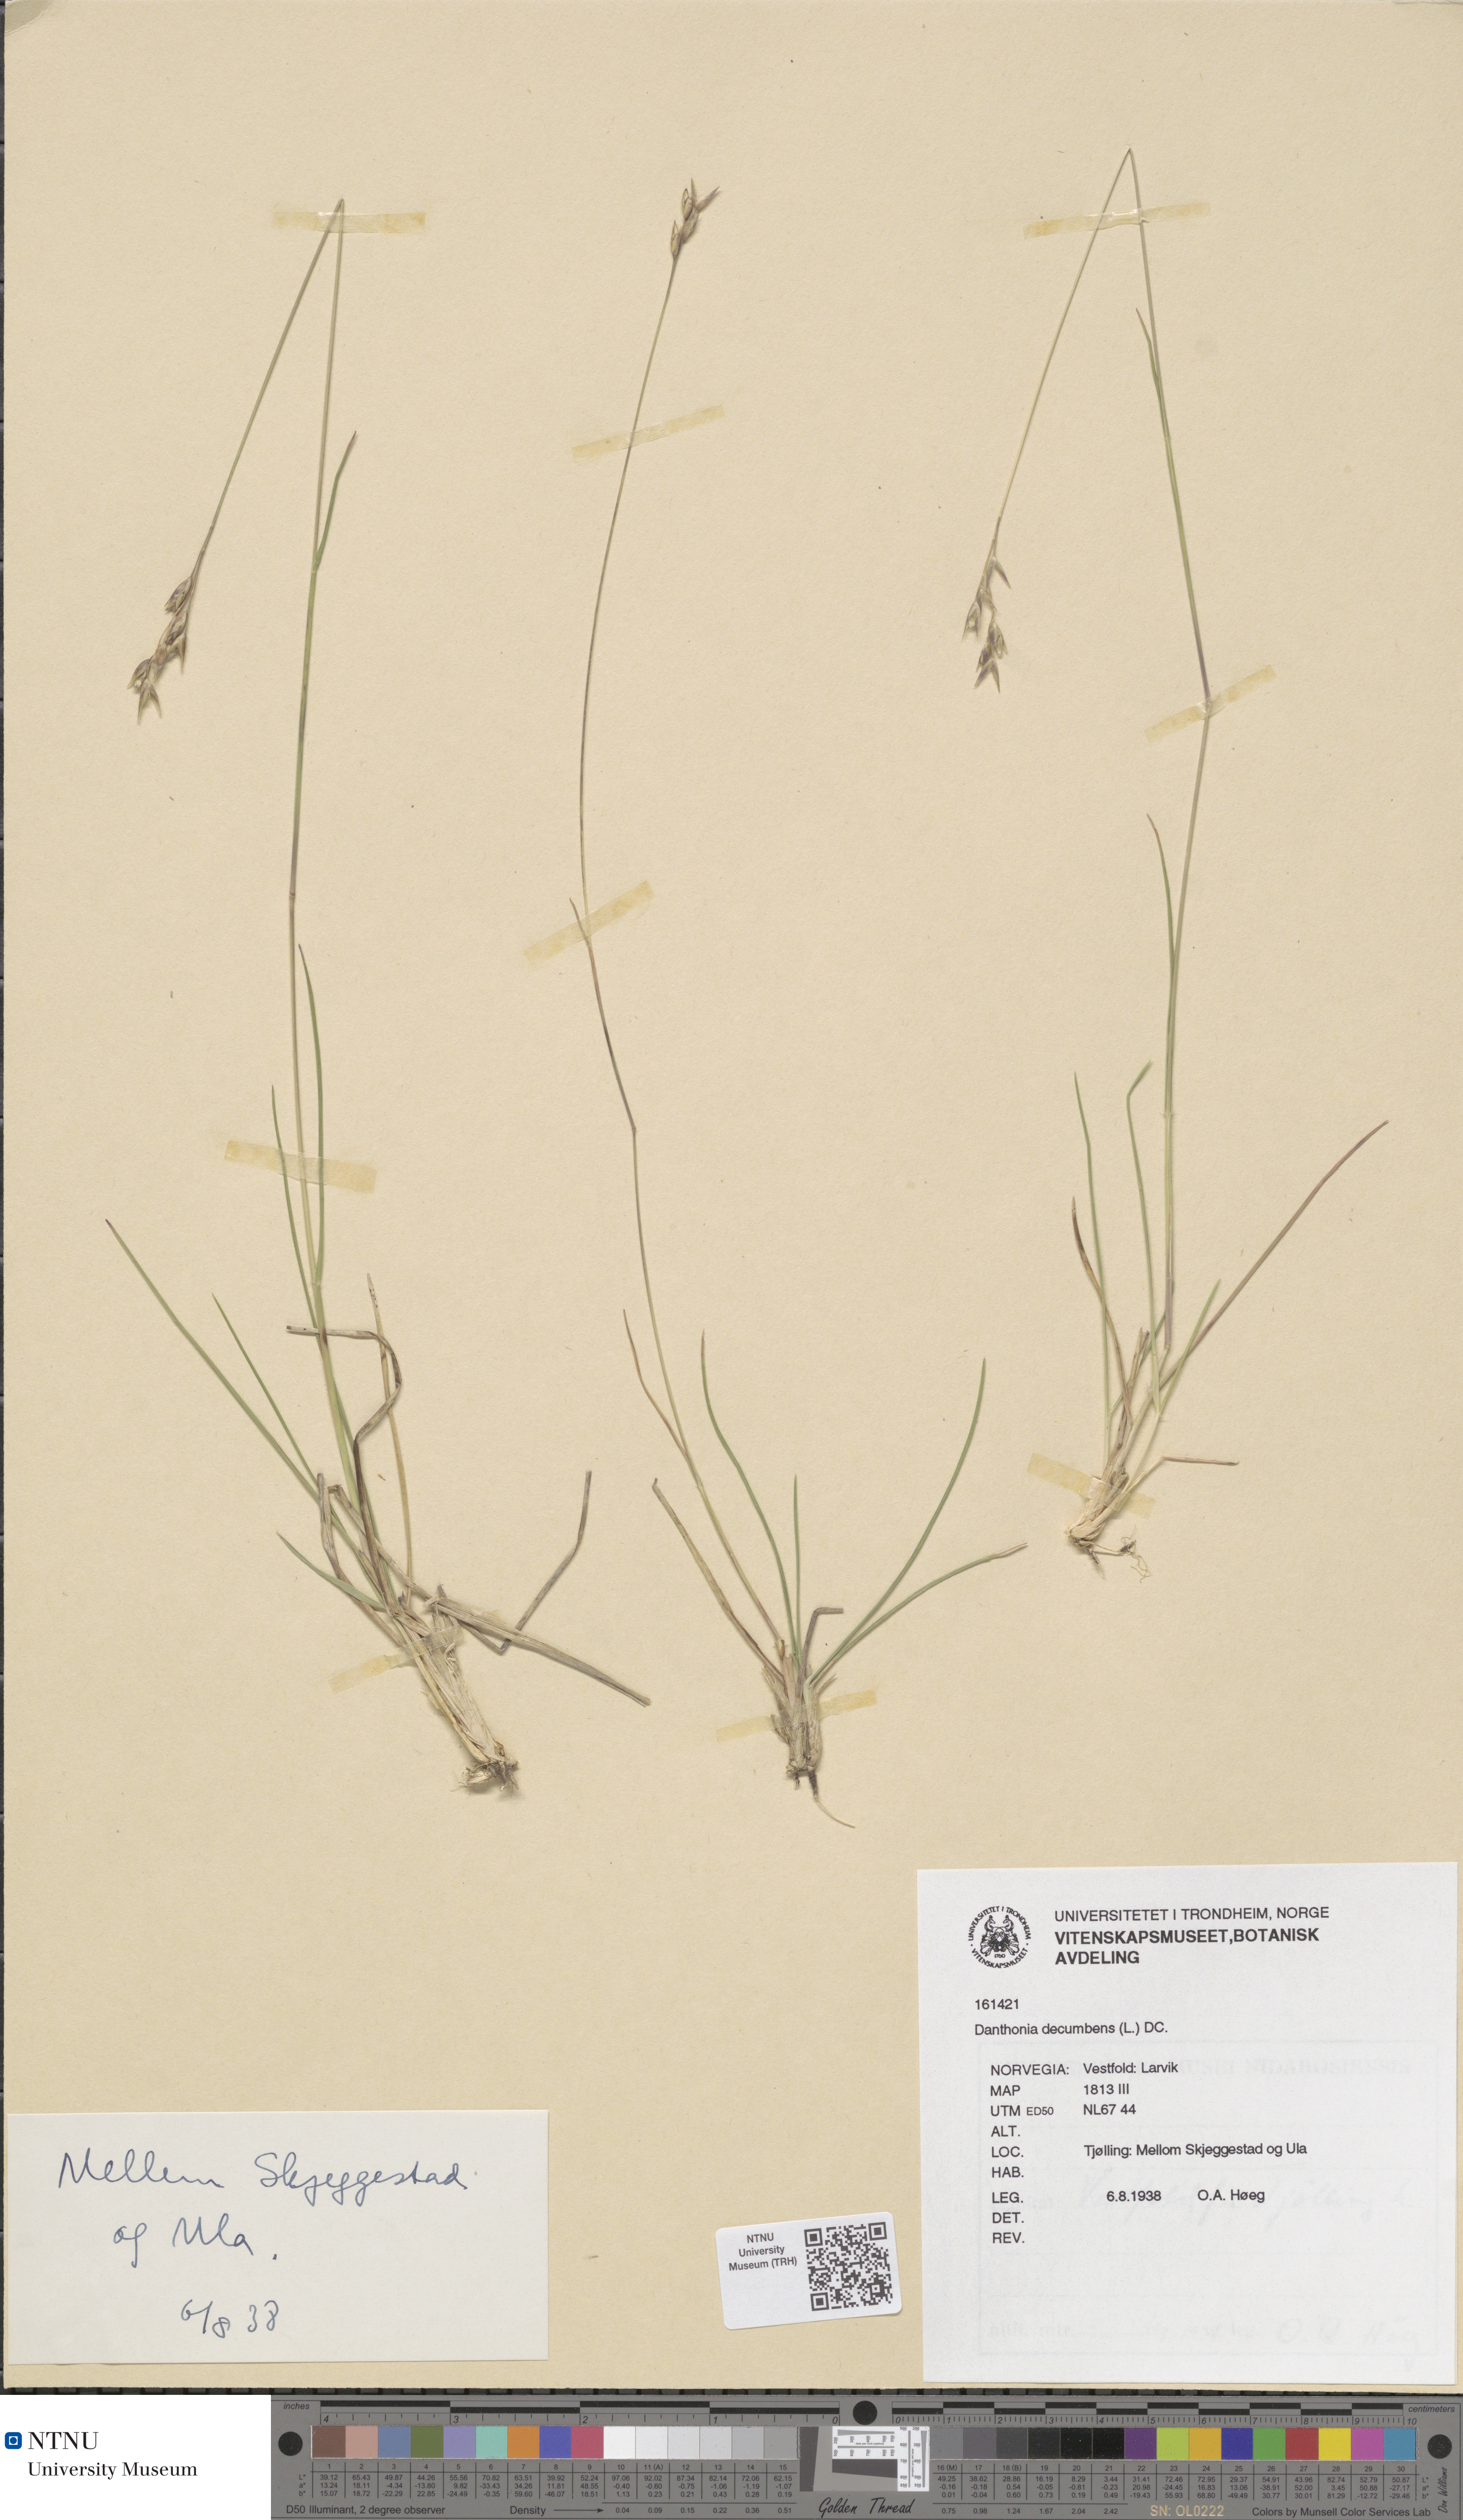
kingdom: Plantae
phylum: Tracheophyta
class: Liliopsida
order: Poales
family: Poaceae
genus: Danthonia
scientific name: Danthonia decumbens
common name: Common heathgrass
